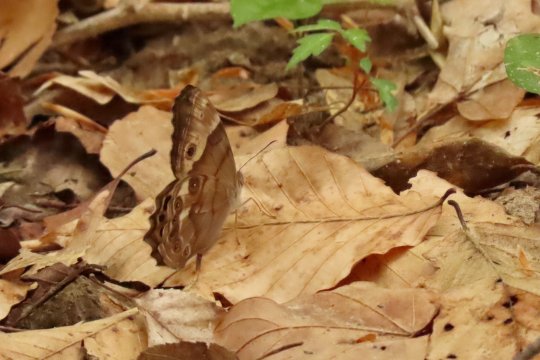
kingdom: Animalia
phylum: Arthropoda
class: Insecta
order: Lepidoptera
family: Nymphalidae
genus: Enodia
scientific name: Enodia portlandia
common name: Southern Pearly Eye
